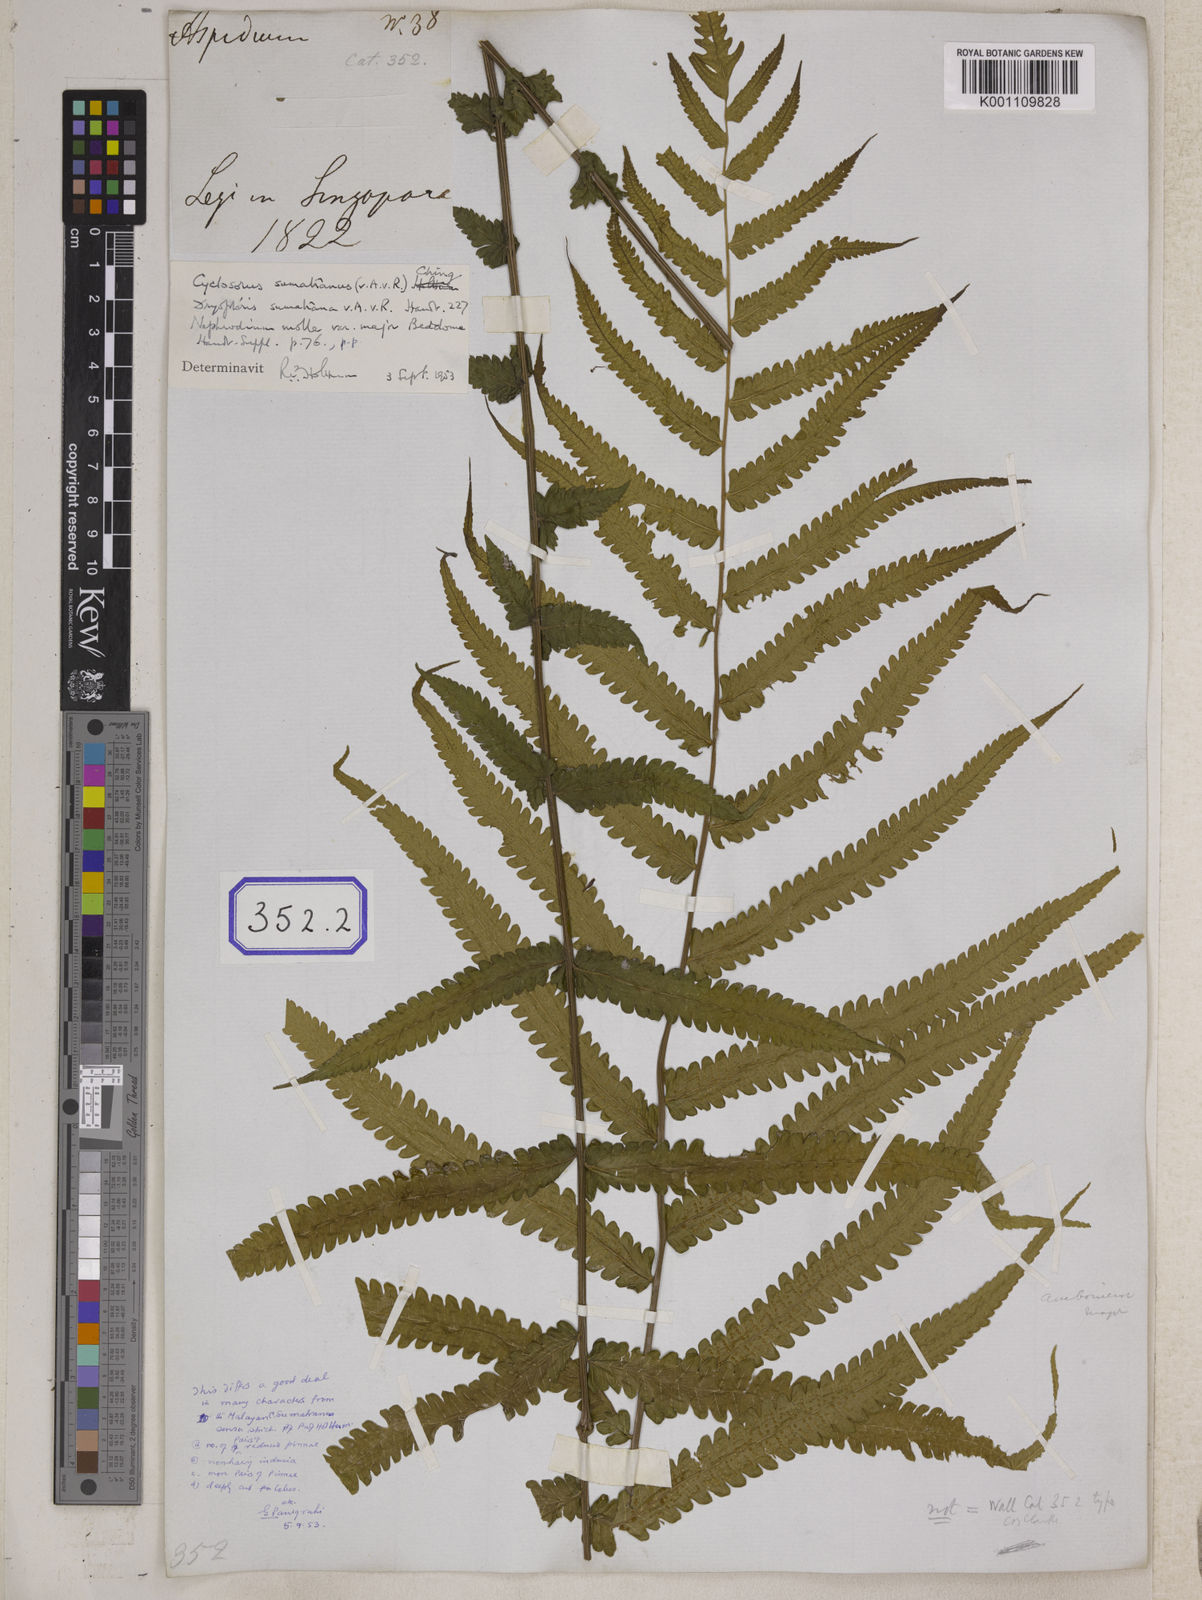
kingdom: Plantae
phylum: Tracheophyta
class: Polypodiopsida
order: Polypodiales
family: Thelypteridaceae
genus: Christella
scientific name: Christella arida
